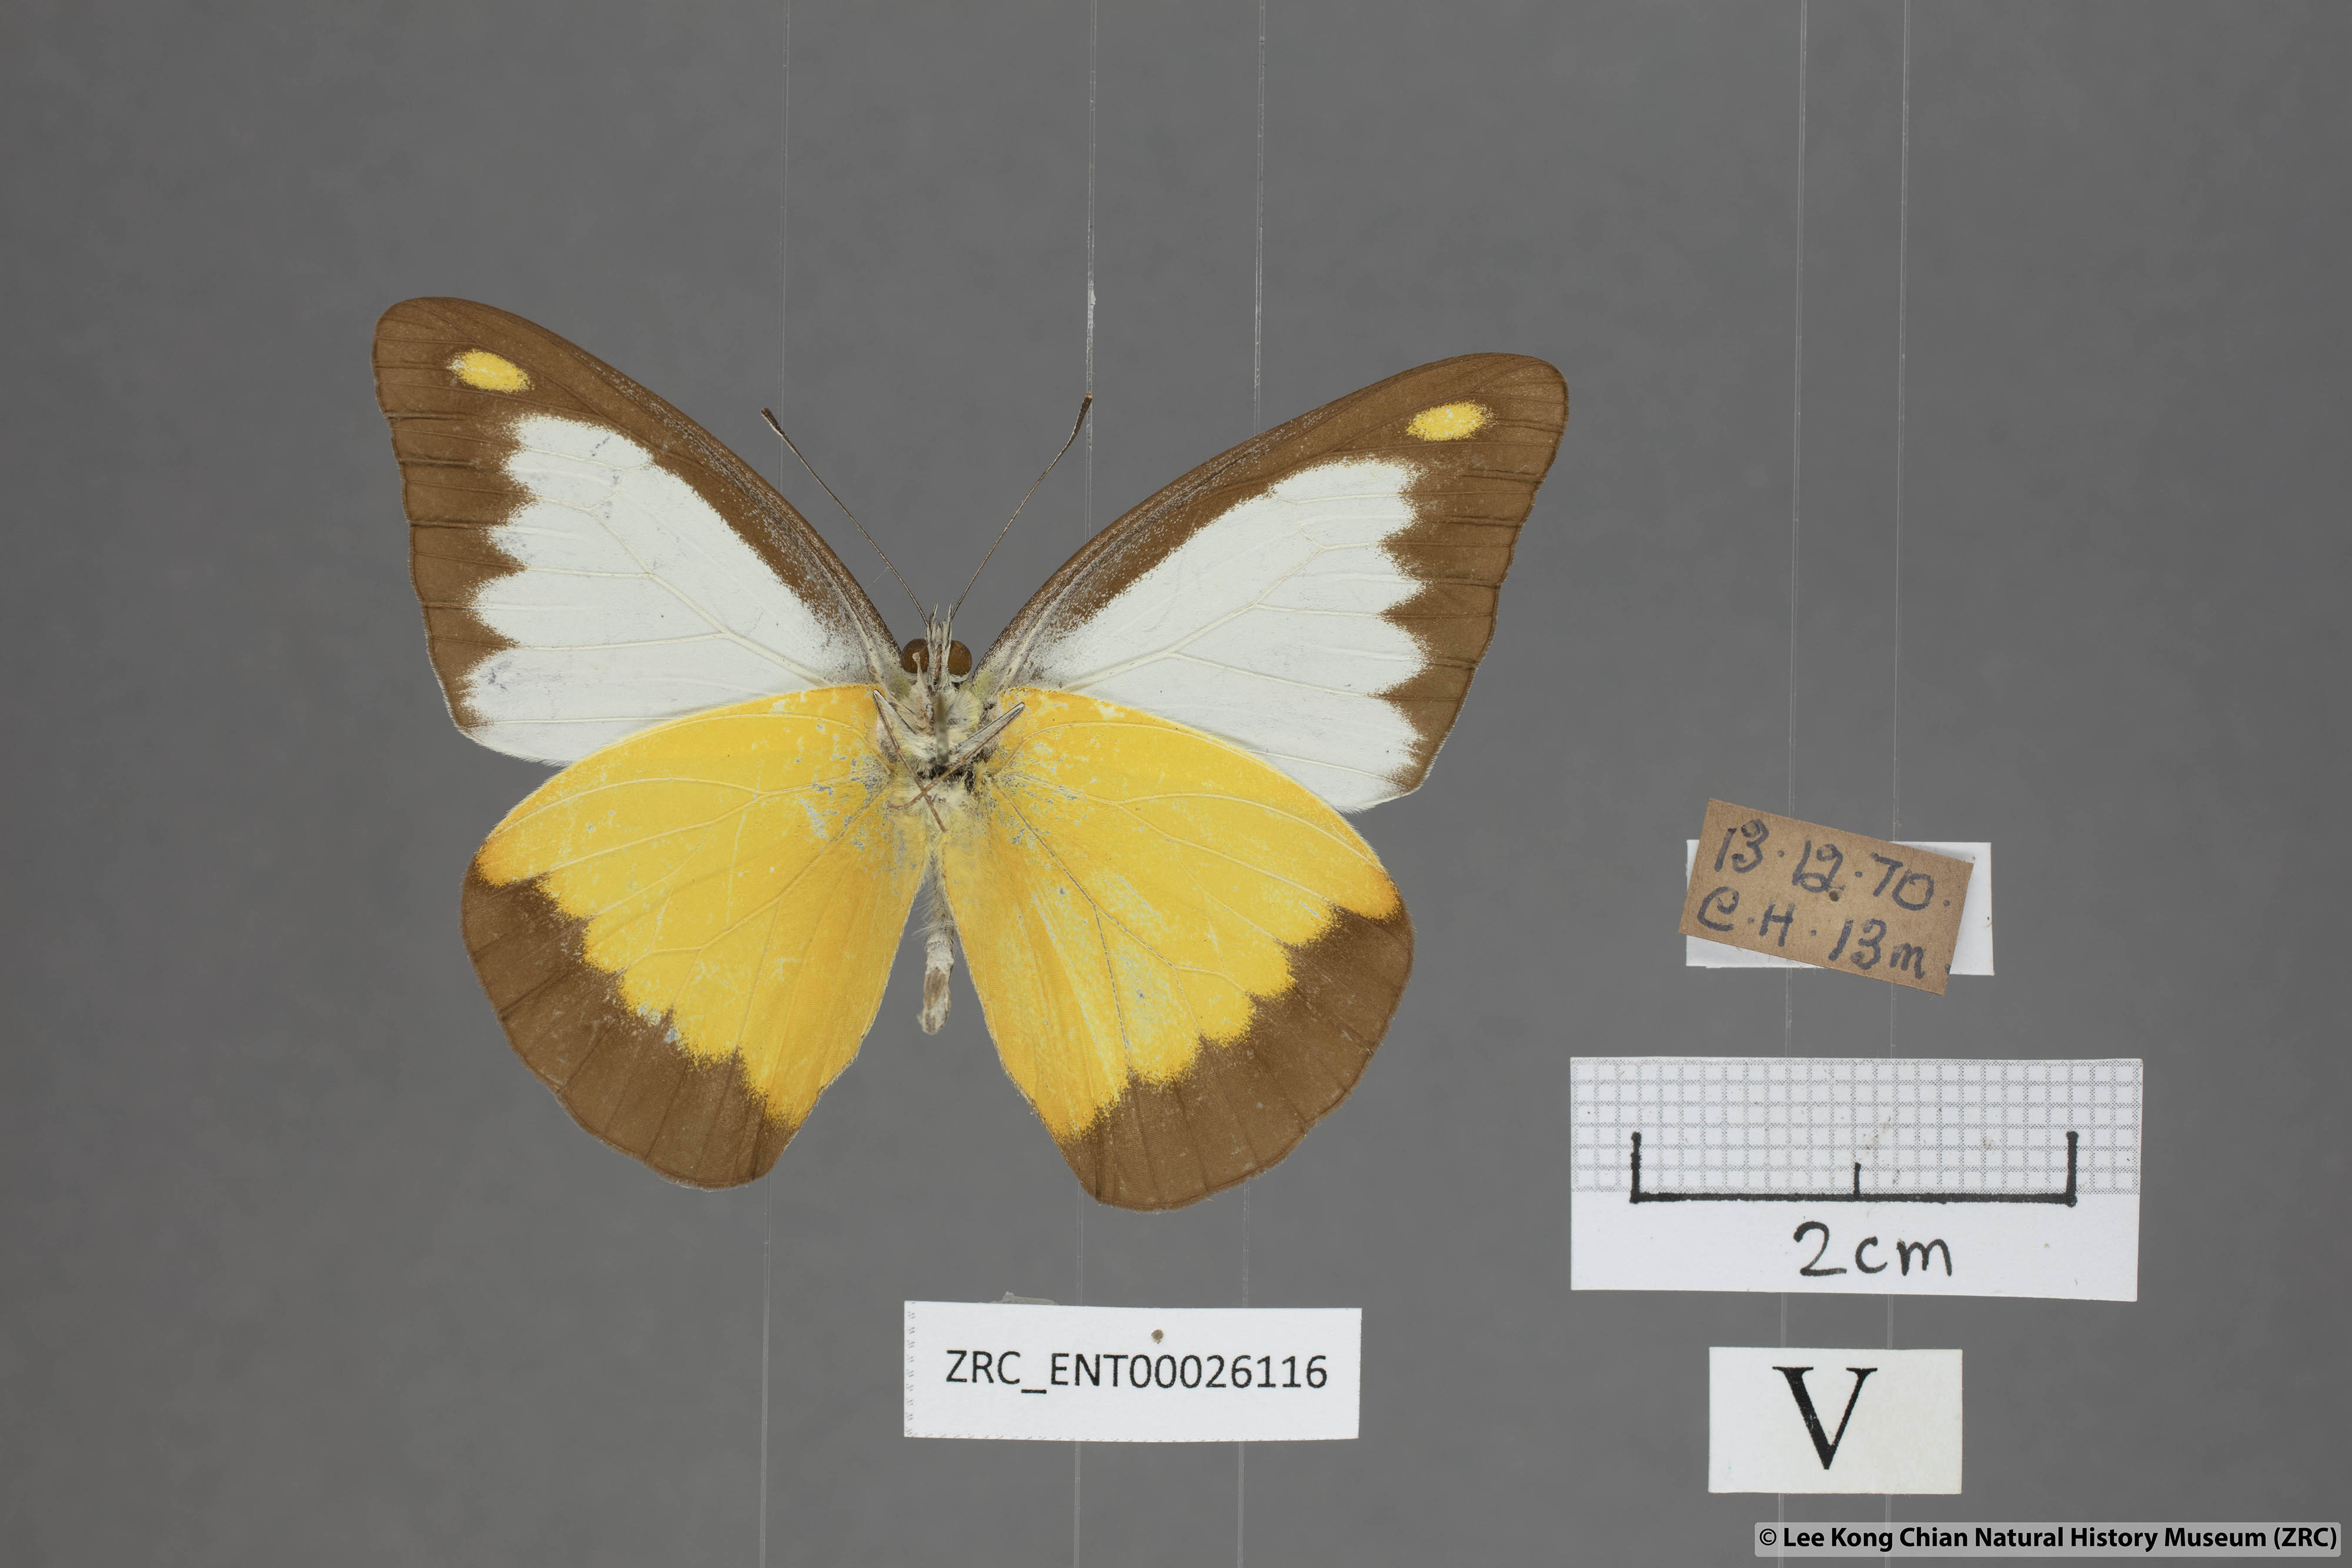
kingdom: Animalia
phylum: Arthropoda
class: Insecta
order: Lepidoptera
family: Pieridae
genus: Appias
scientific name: Appias lyncida
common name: Chocolate albatross
